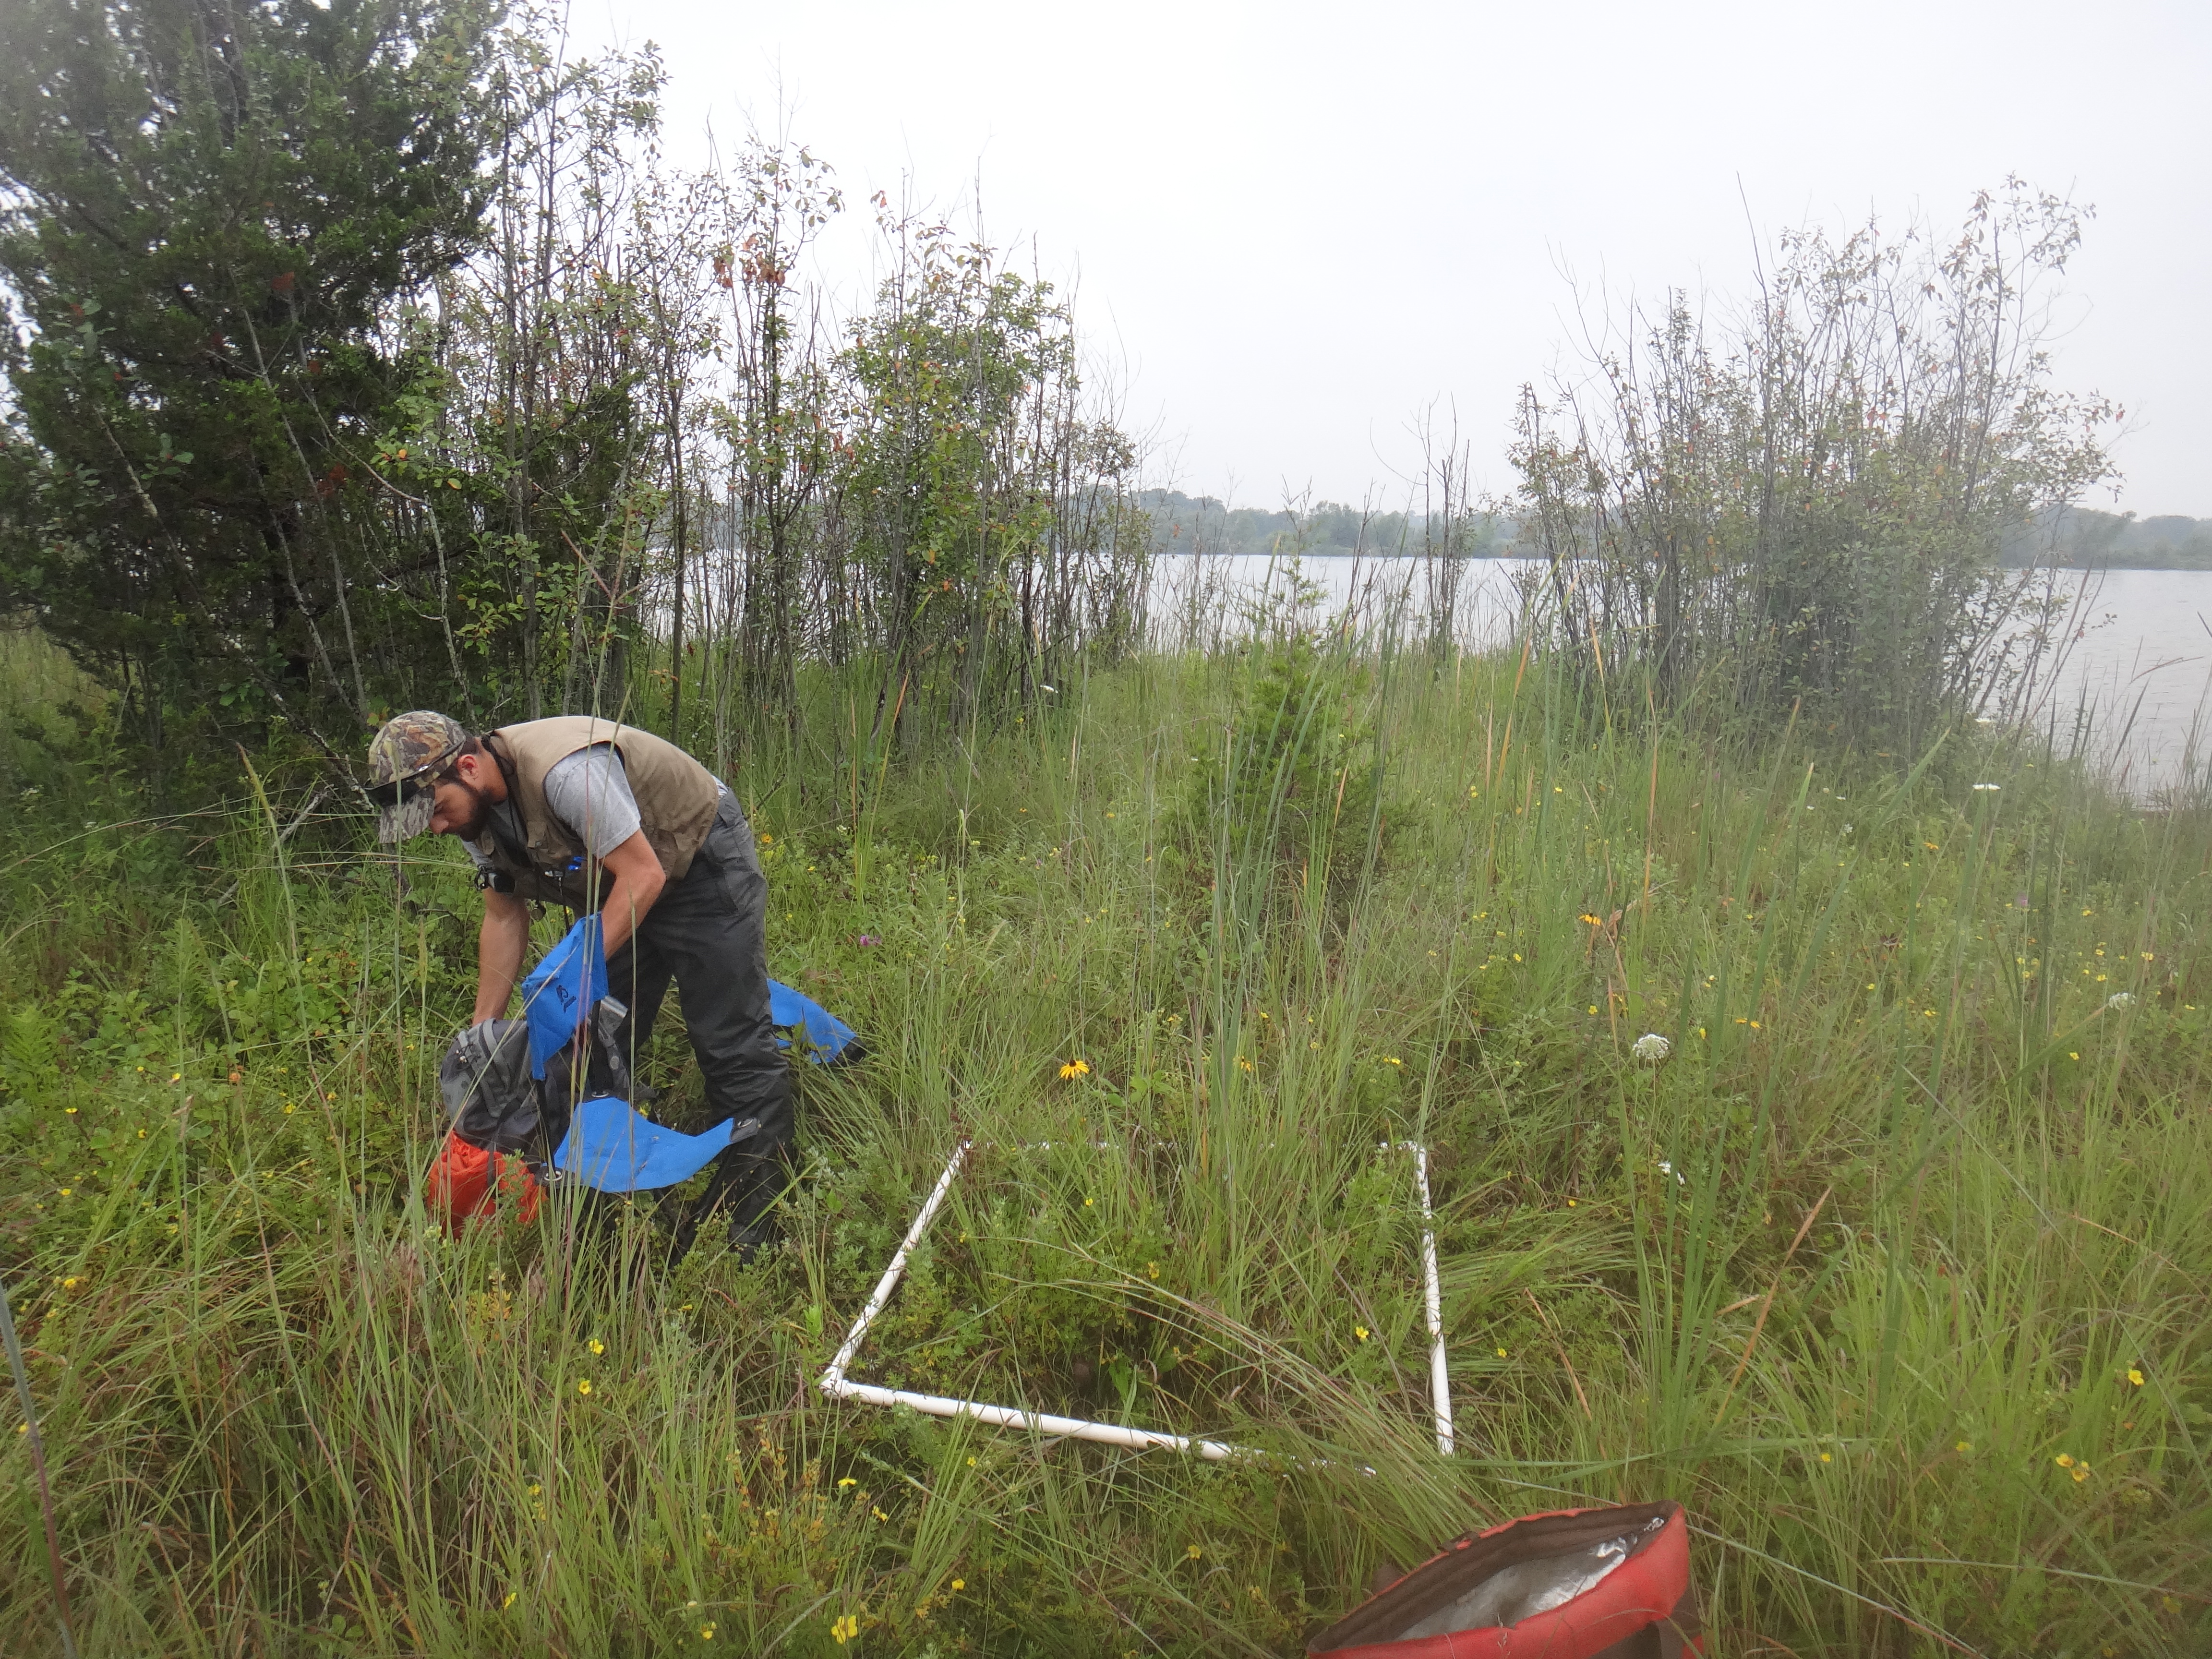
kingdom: Plantae
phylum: Tracheophyta
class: Magnoliopsida
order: Sapindales
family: Sapindaceae
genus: Acer
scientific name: Acer rubrum
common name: Red maple
